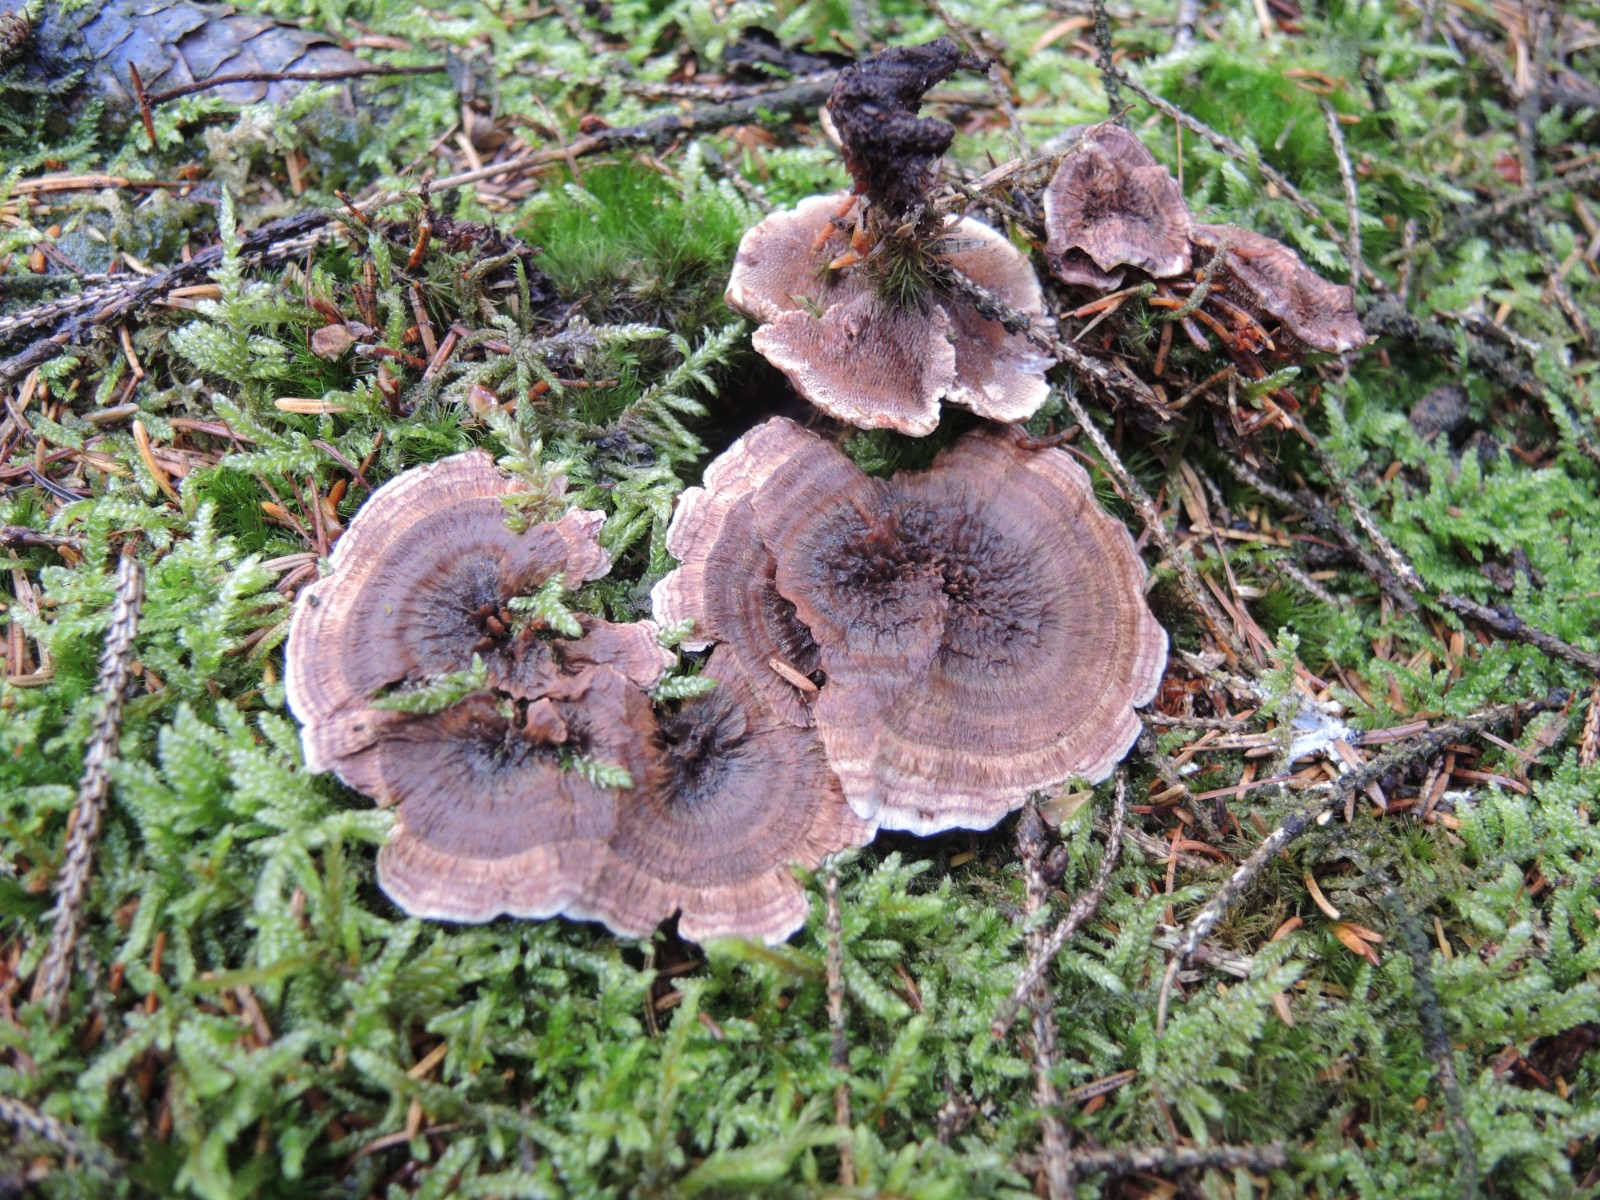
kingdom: Fungi
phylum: Basidiomycota
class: Agaricomycetes
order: Thelephorales
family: Bankeraceae
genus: Hydnellum
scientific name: Hydnellum concrescens
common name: bæltet korkpigsvamp
